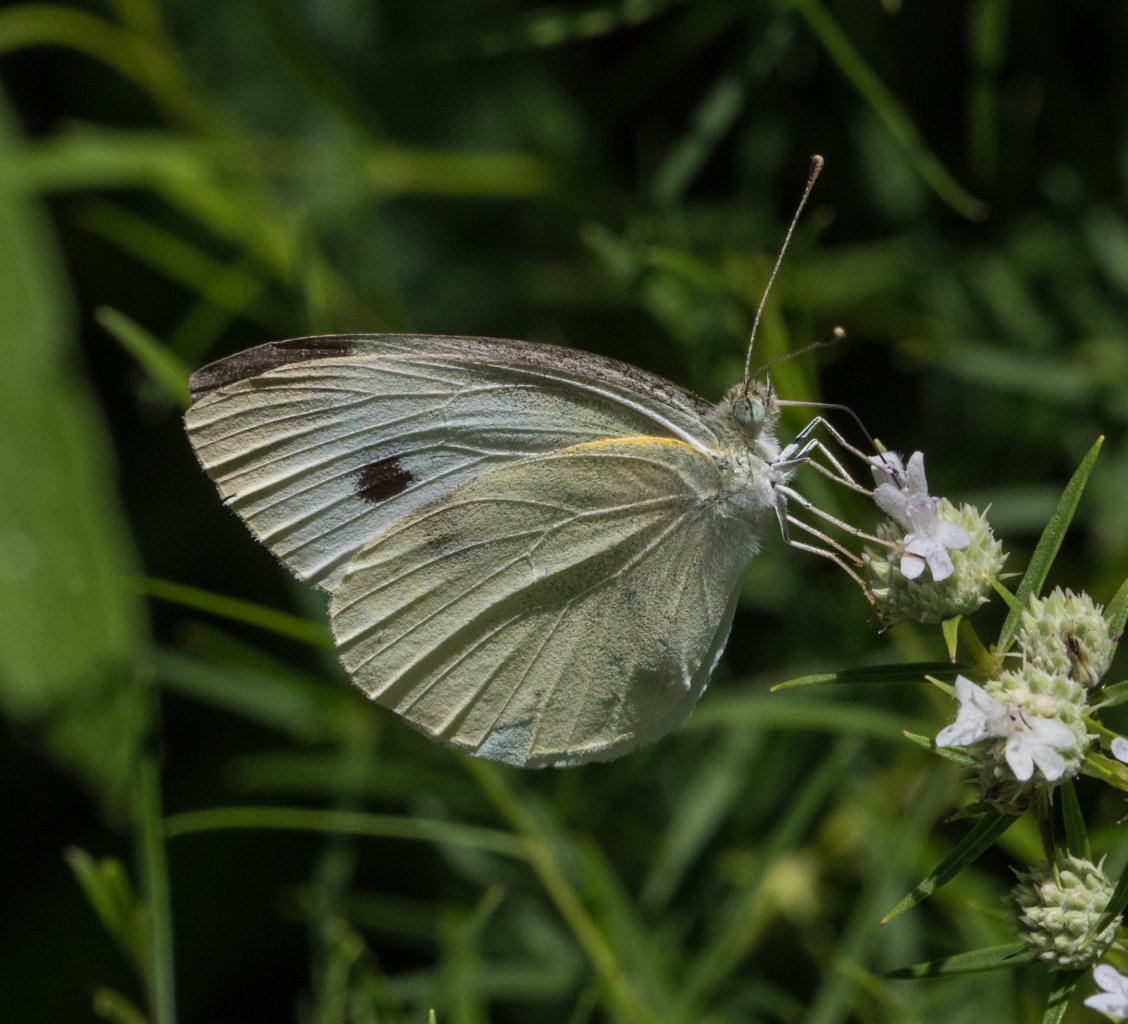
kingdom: Animalia
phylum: Arthropoda
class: Insecta
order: Lepidoptera
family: Pieridae
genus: Pieris
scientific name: Pieris rapae
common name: Cabbage White
